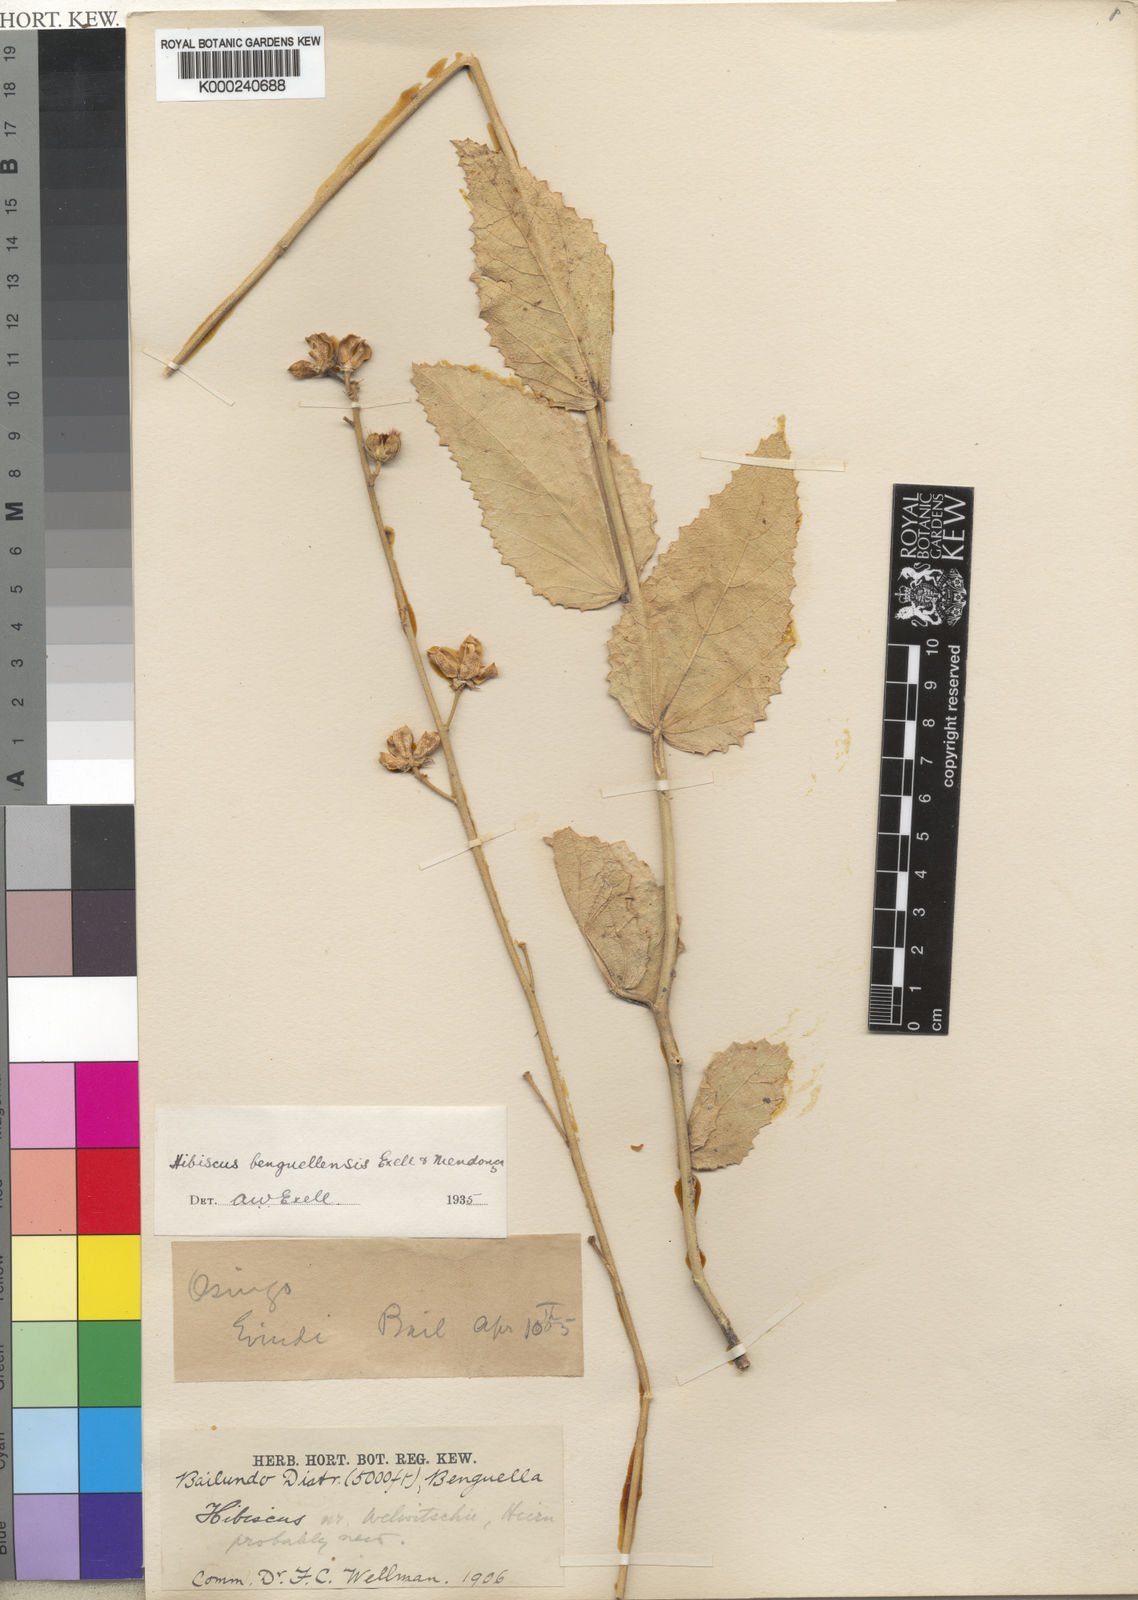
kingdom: Plantae
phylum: Tracheophyta
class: Magnoliopsida
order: Malvales
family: Malvaceae
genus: Hibiscus
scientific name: Hibiscus
